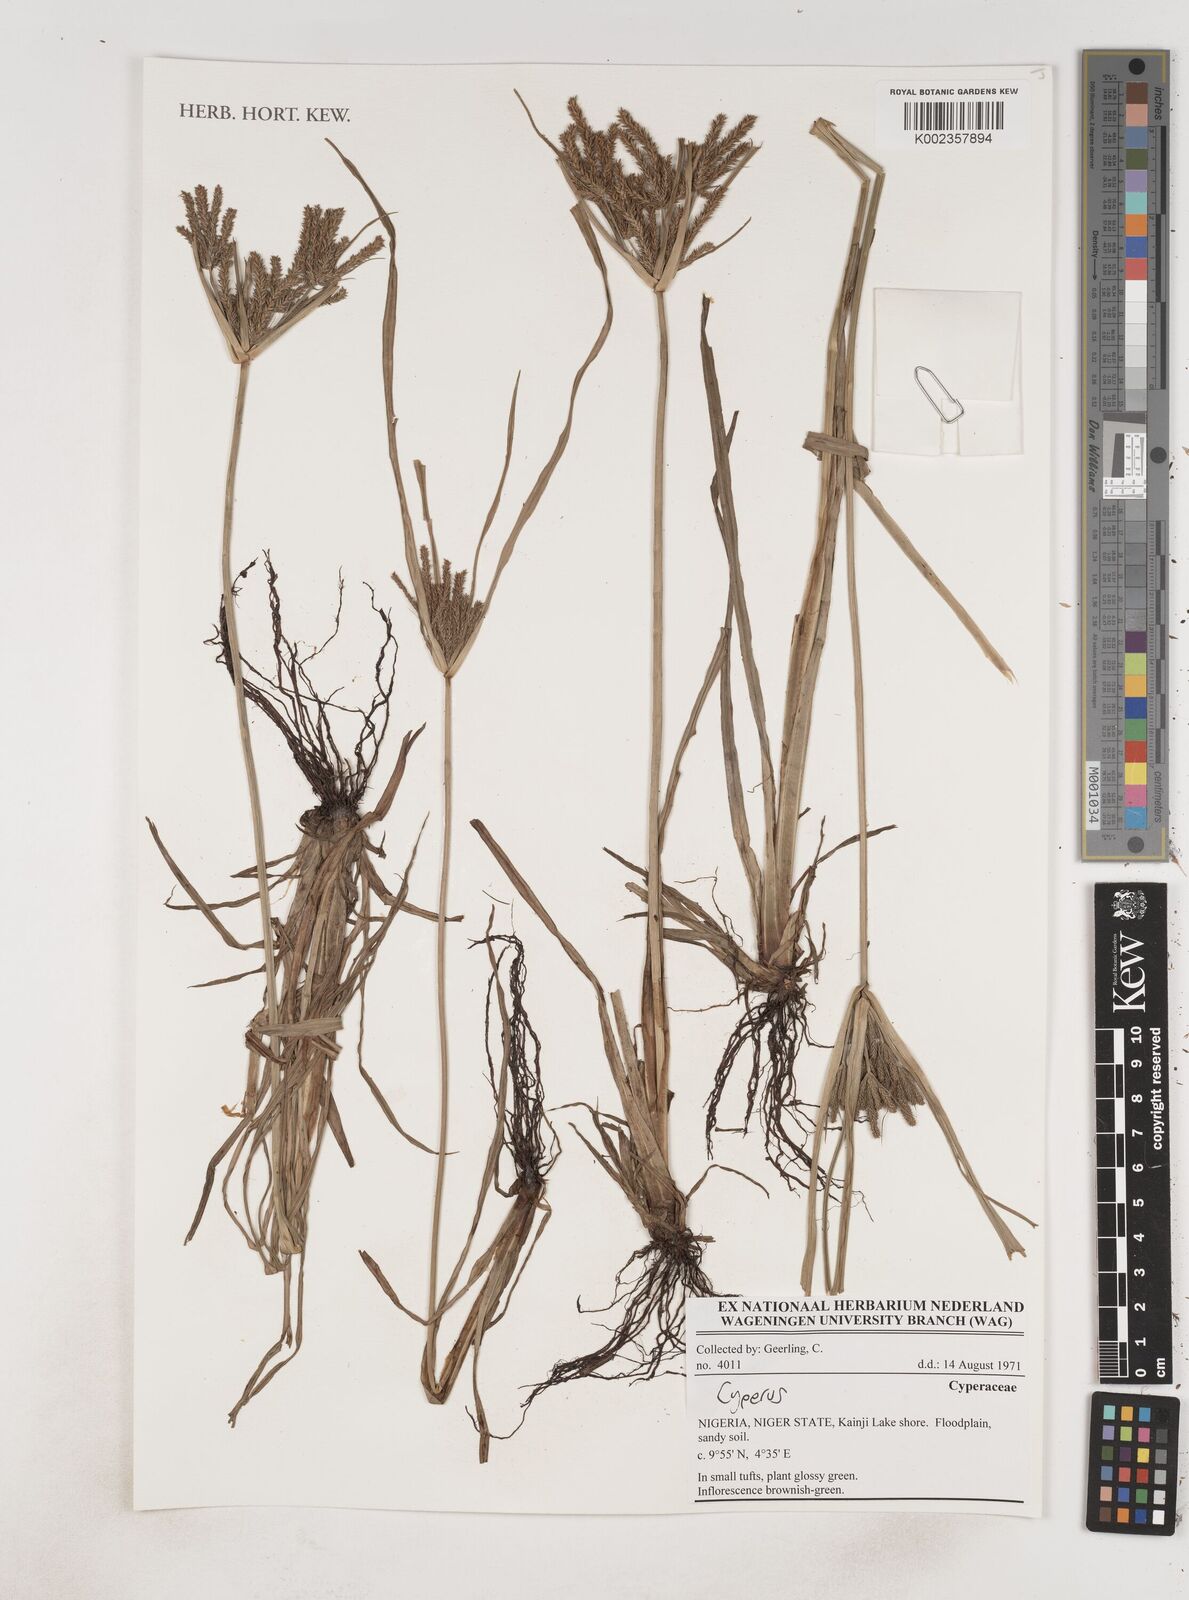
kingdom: Plantae
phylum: Tracheophyta
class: Liliopsida
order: Poales
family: Cyperaceae
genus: Cyperus
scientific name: Cyperus
